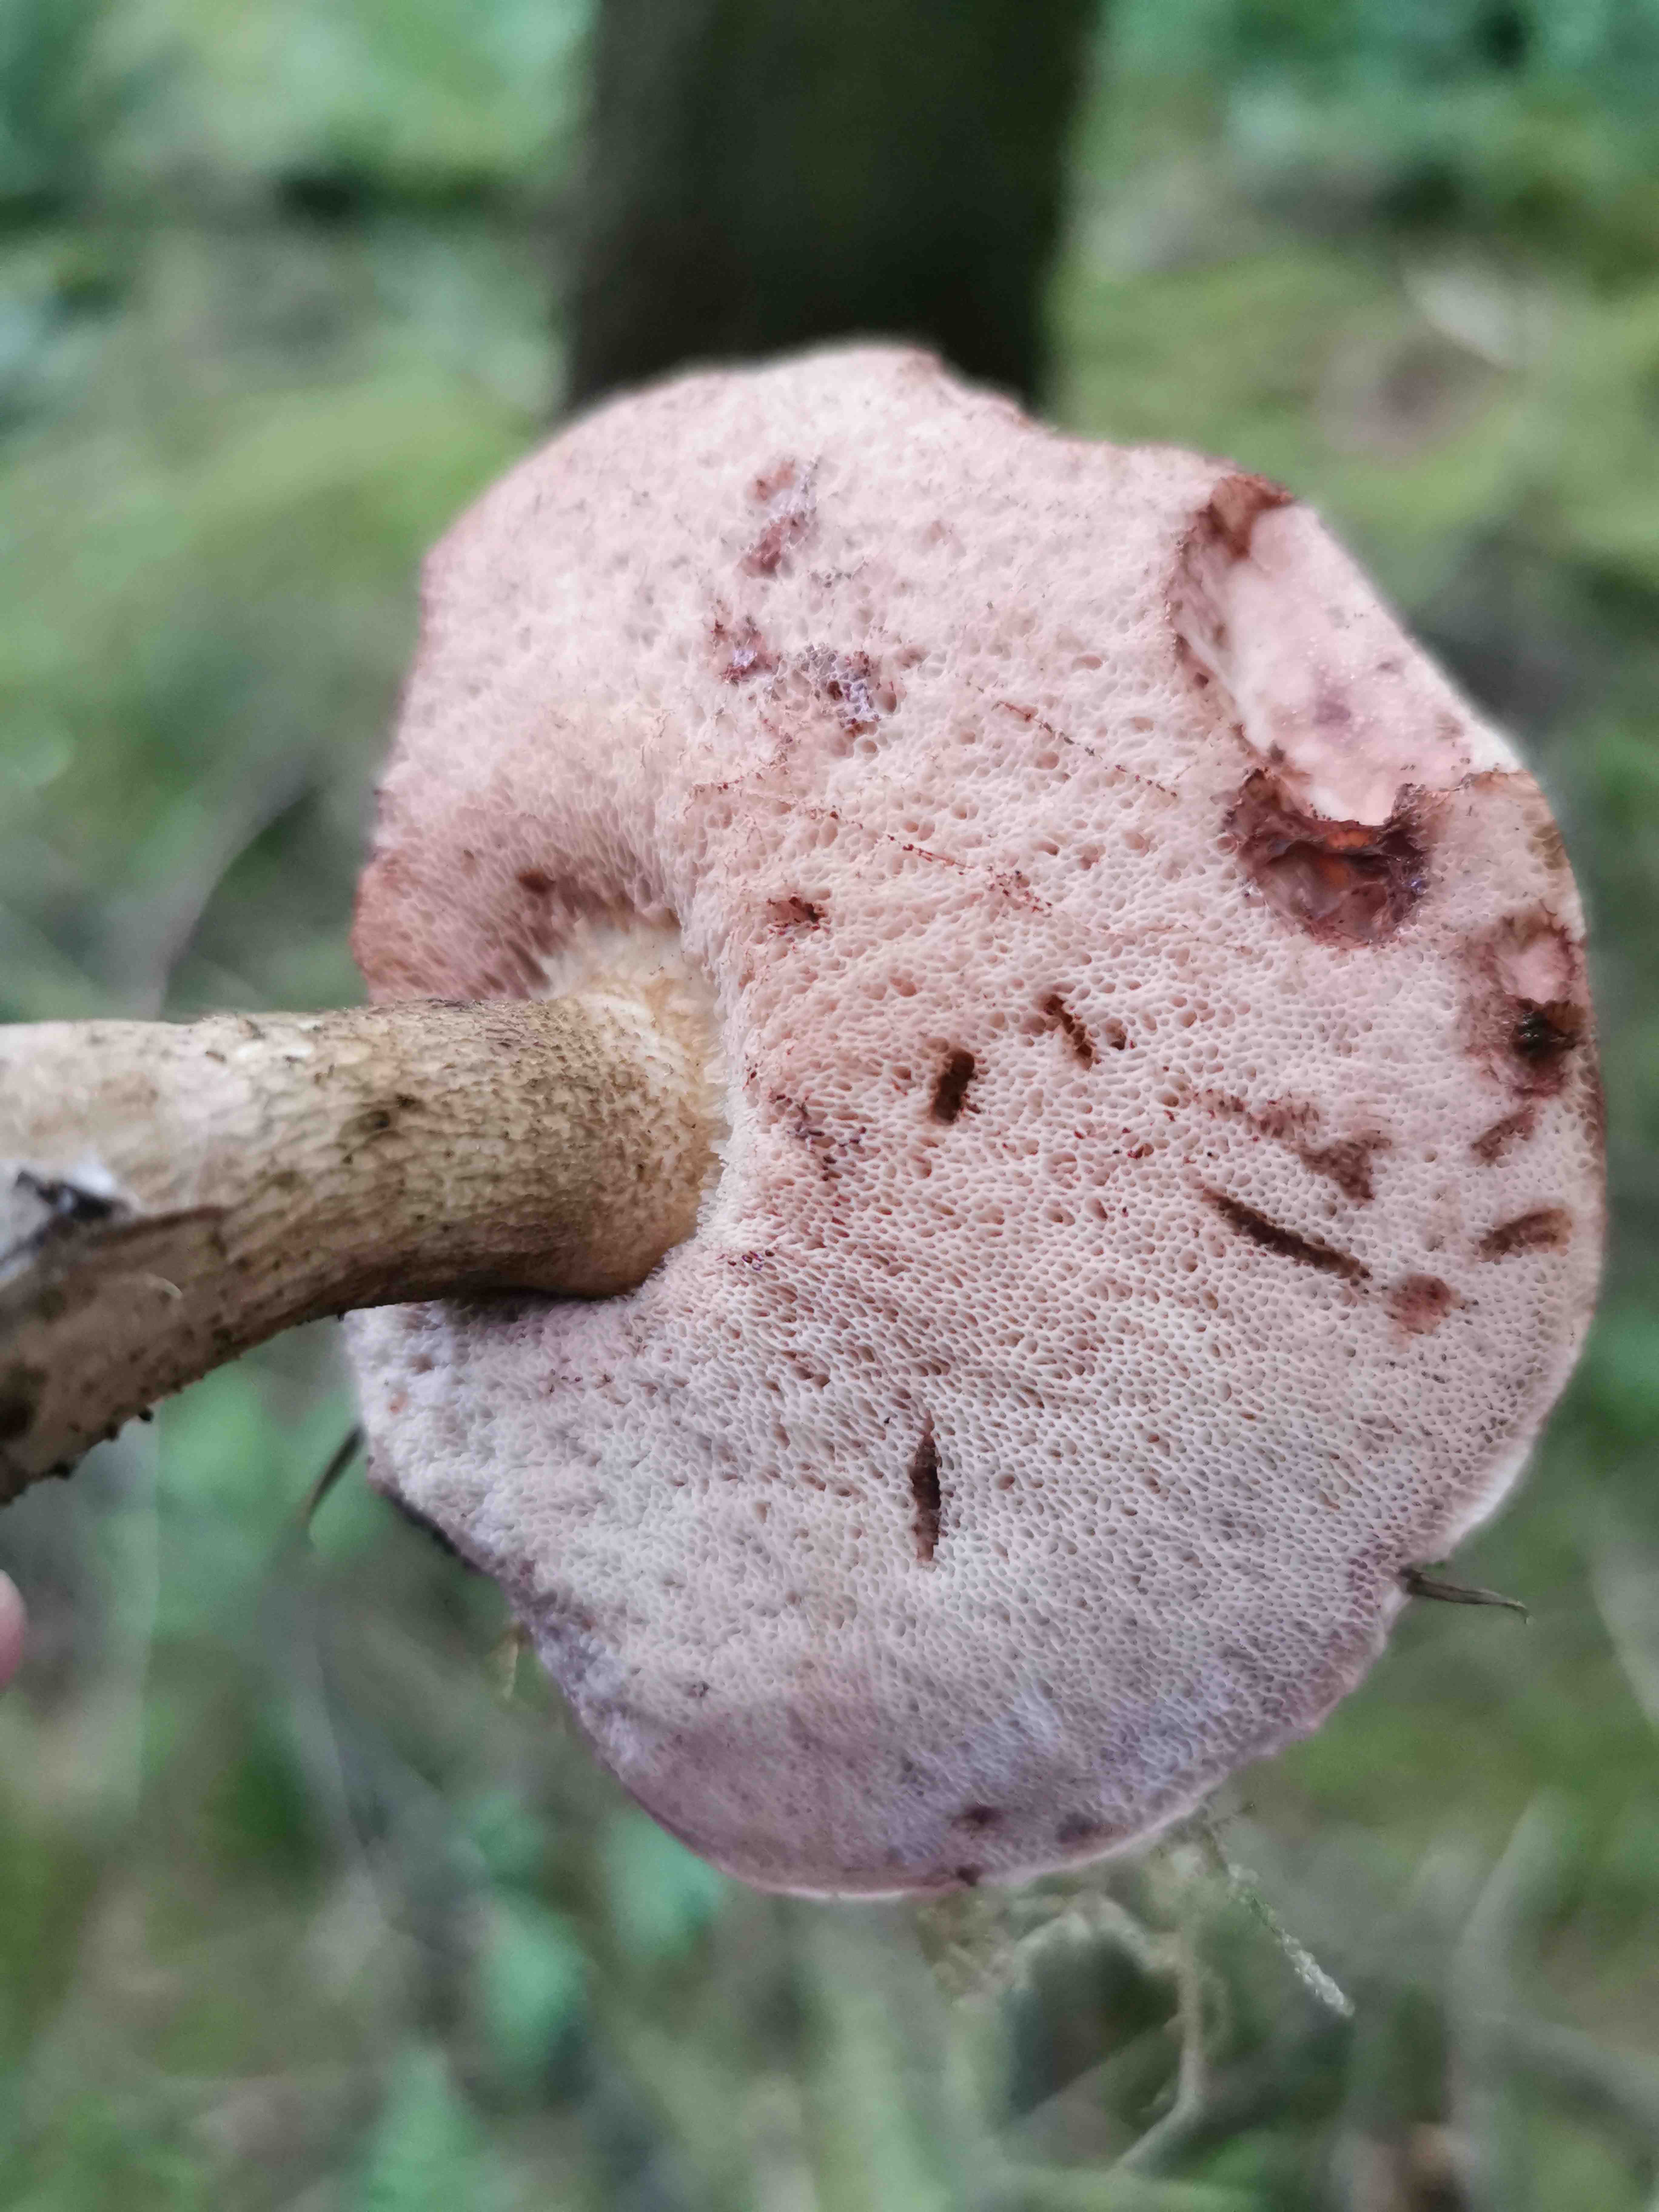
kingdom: Fungi
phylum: Basidiomycota
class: Agaricomycetes
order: Boletales
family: Boletaceae
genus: Tylopilus
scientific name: Tylopilus felleus
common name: galderørhat
